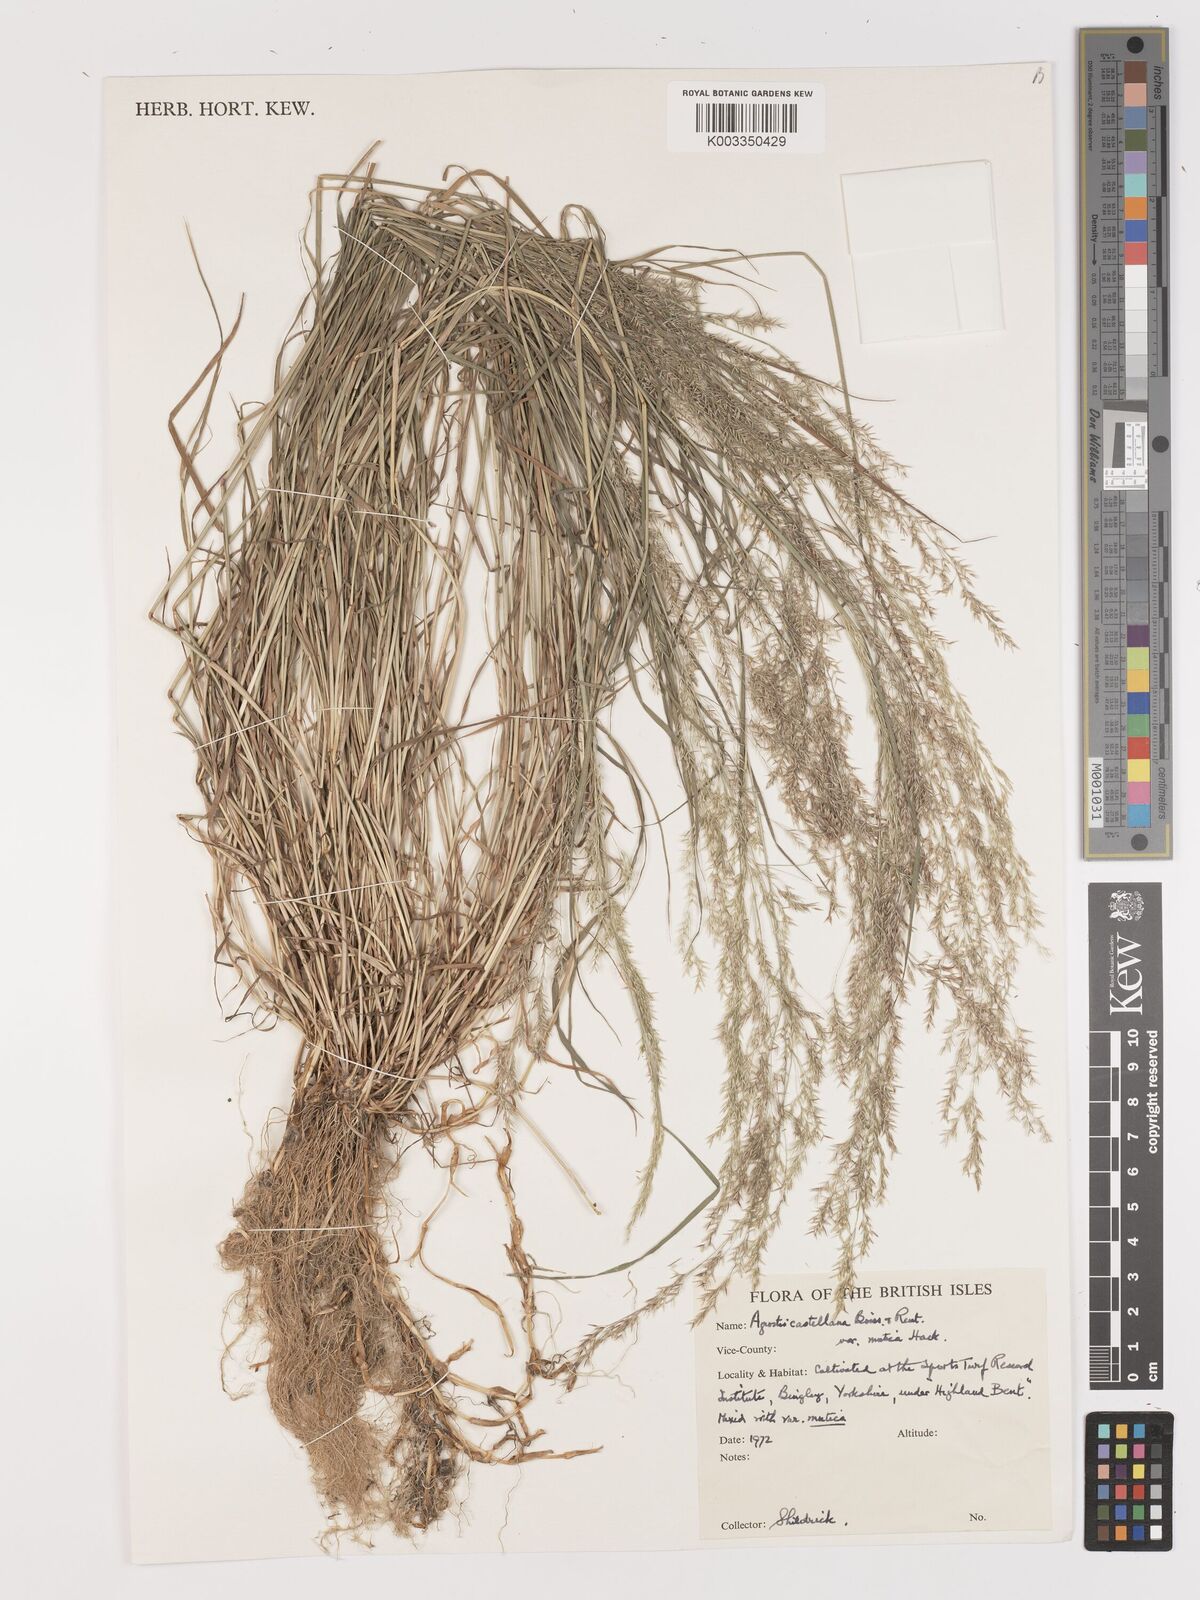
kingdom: Plantae
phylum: Tracheophyta
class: Liliopsida
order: Poales
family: Poaceae
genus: Agrostis
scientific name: Agrostis castellana
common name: Highland bent
